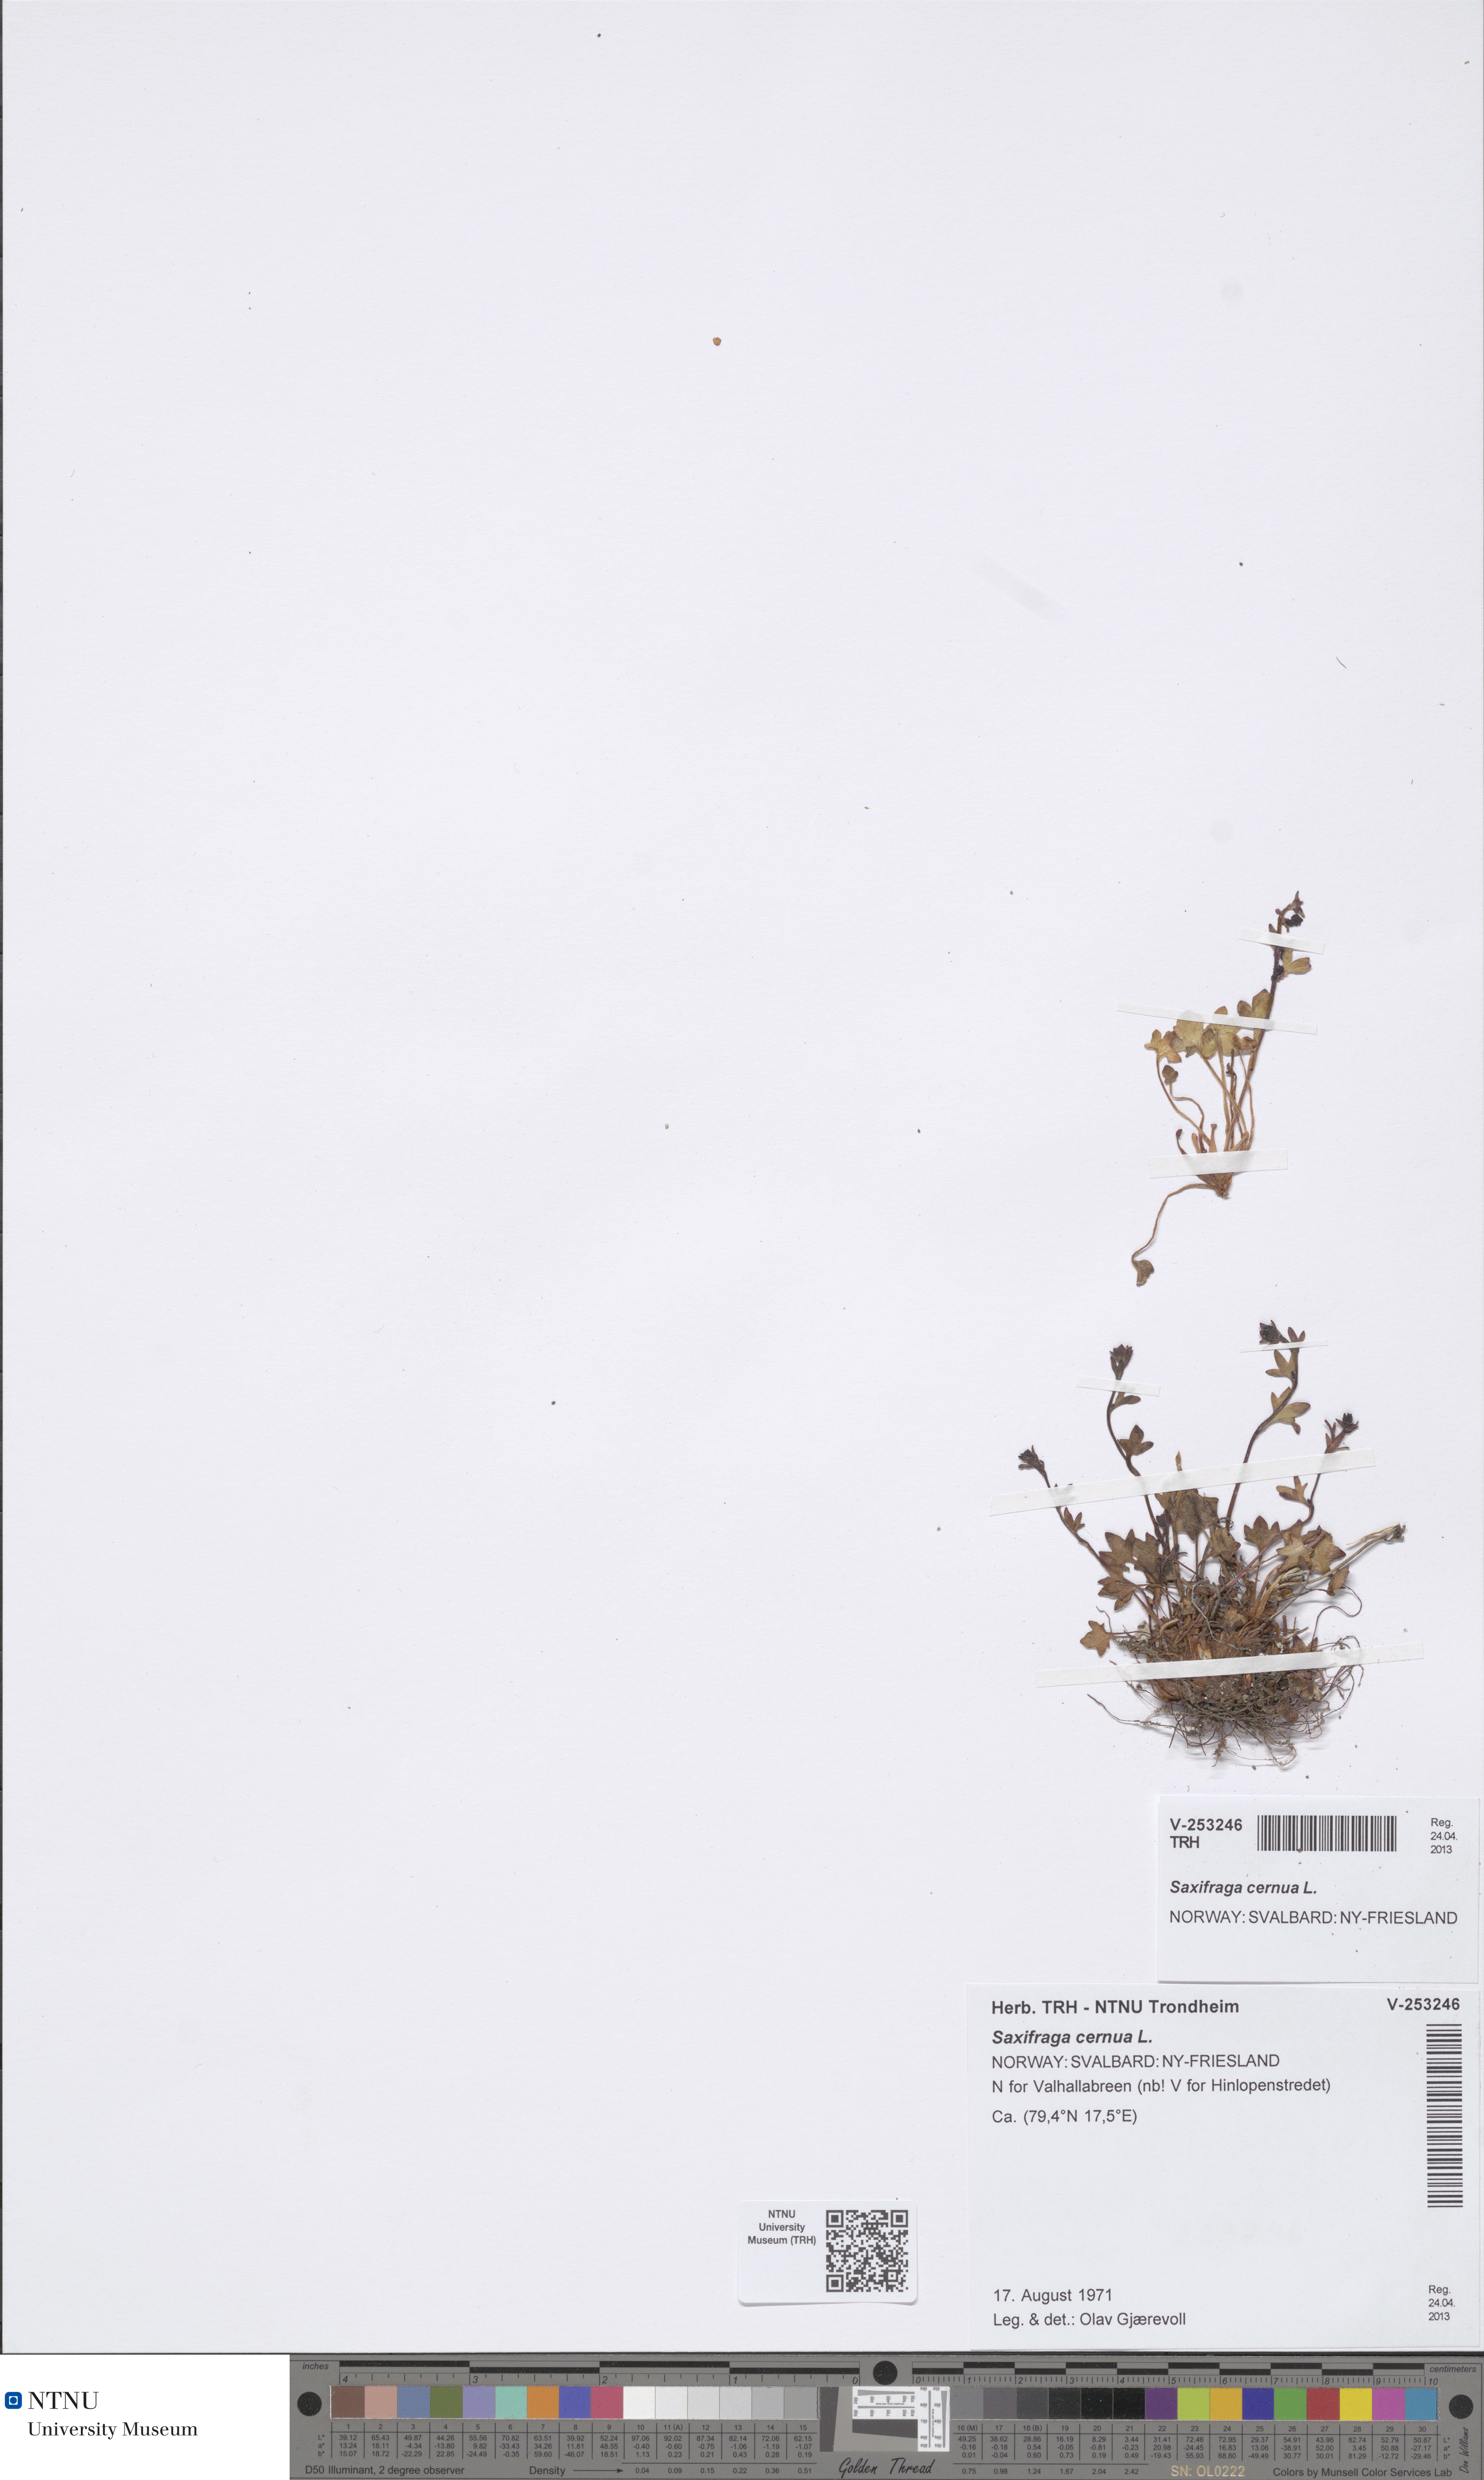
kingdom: Plantae
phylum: Tracheophyta
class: Magnoliopsida
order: Saxifragales
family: Saxifragaceae
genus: Saxifraga
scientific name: Saxifraga cernua
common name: Drooping saxifrage
